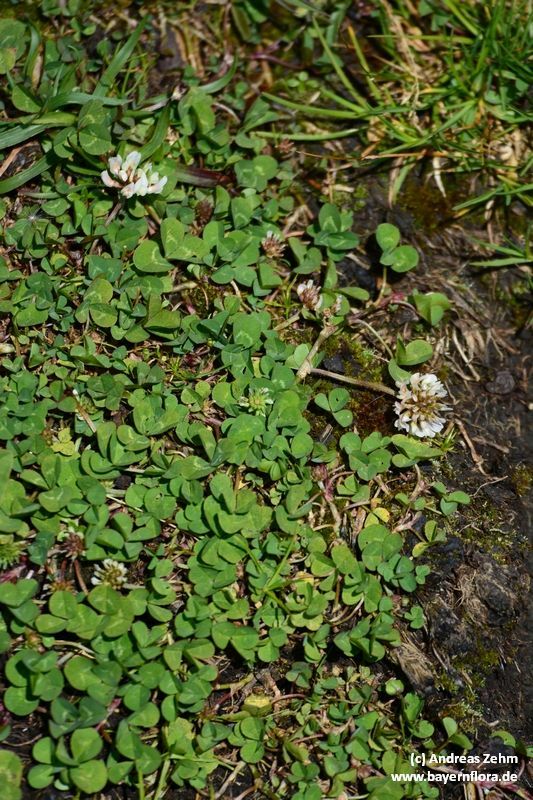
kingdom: Plantae
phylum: Tracheophyta
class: Magnoliopsida
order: Fabales
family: Fabaceae
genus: Trifolium
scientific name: Trifolium repens
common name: White clover
